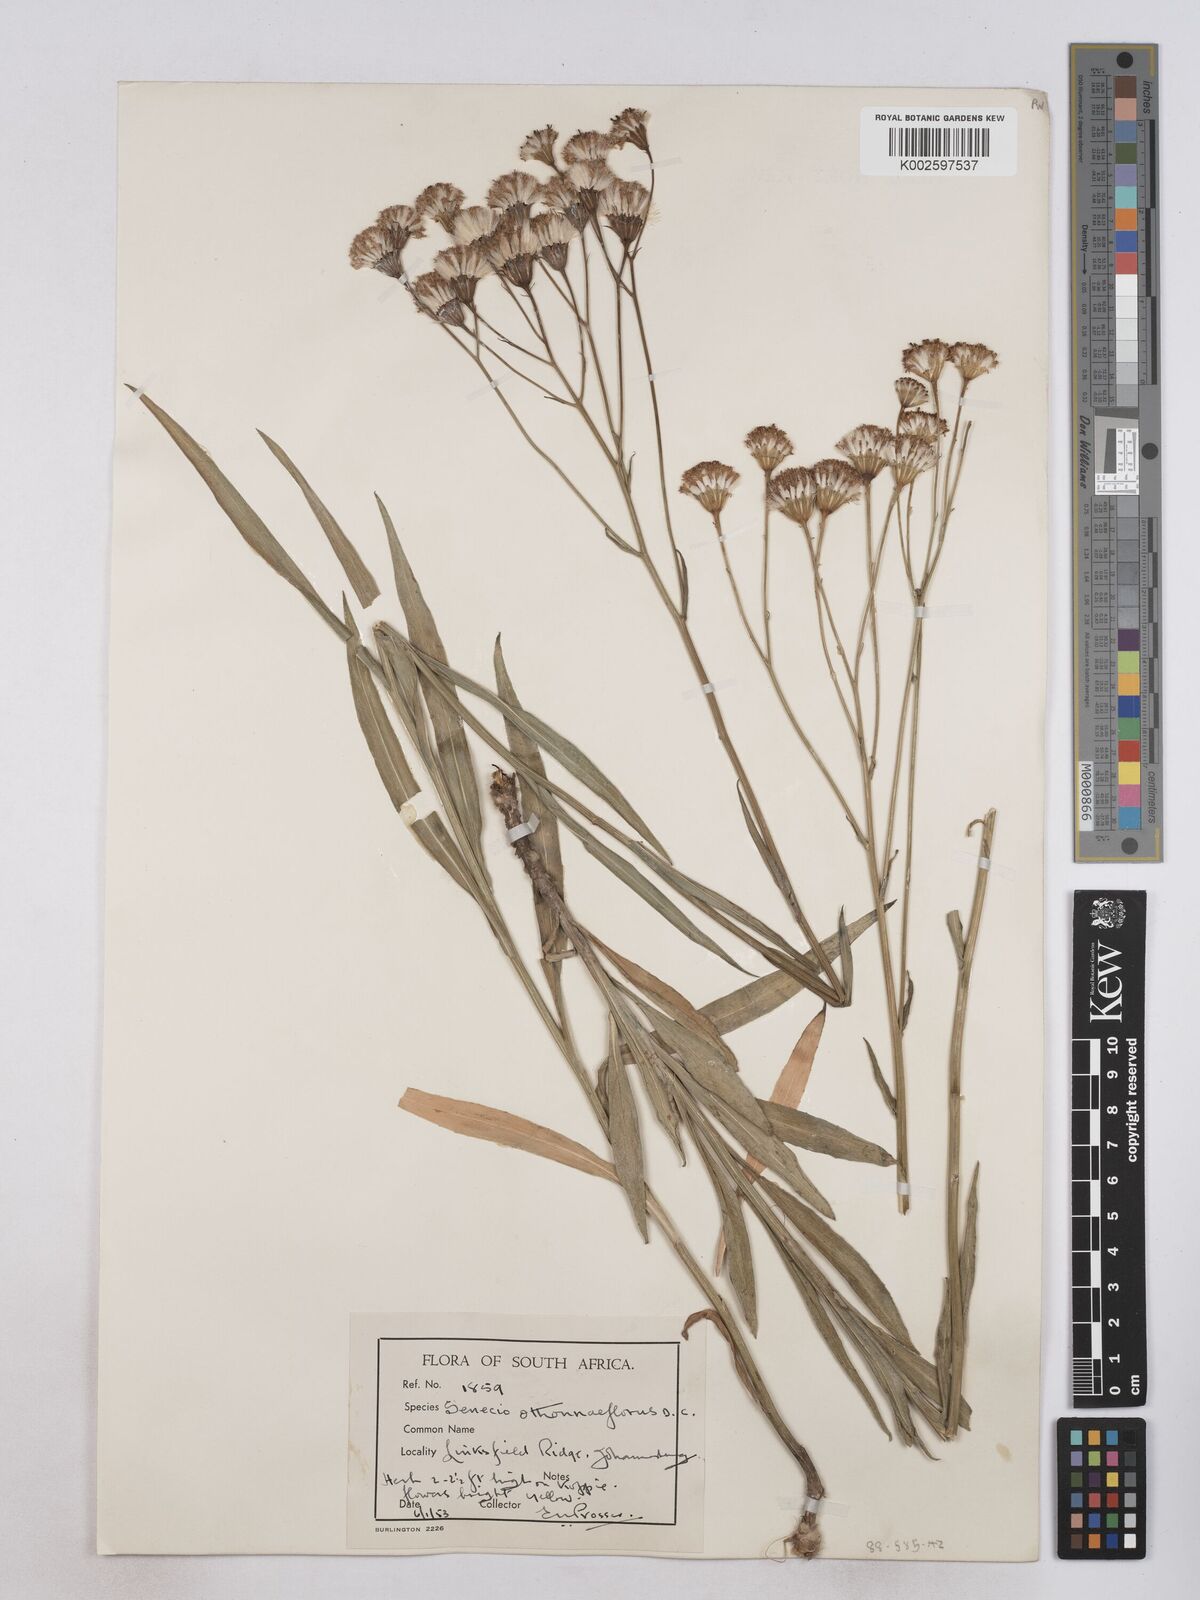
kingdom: Plantae
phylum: Tracheophyta
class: Magnoliopsida
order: Asterales
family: Asteraceae
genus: Senecio
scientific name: Senecio othonniflorus
